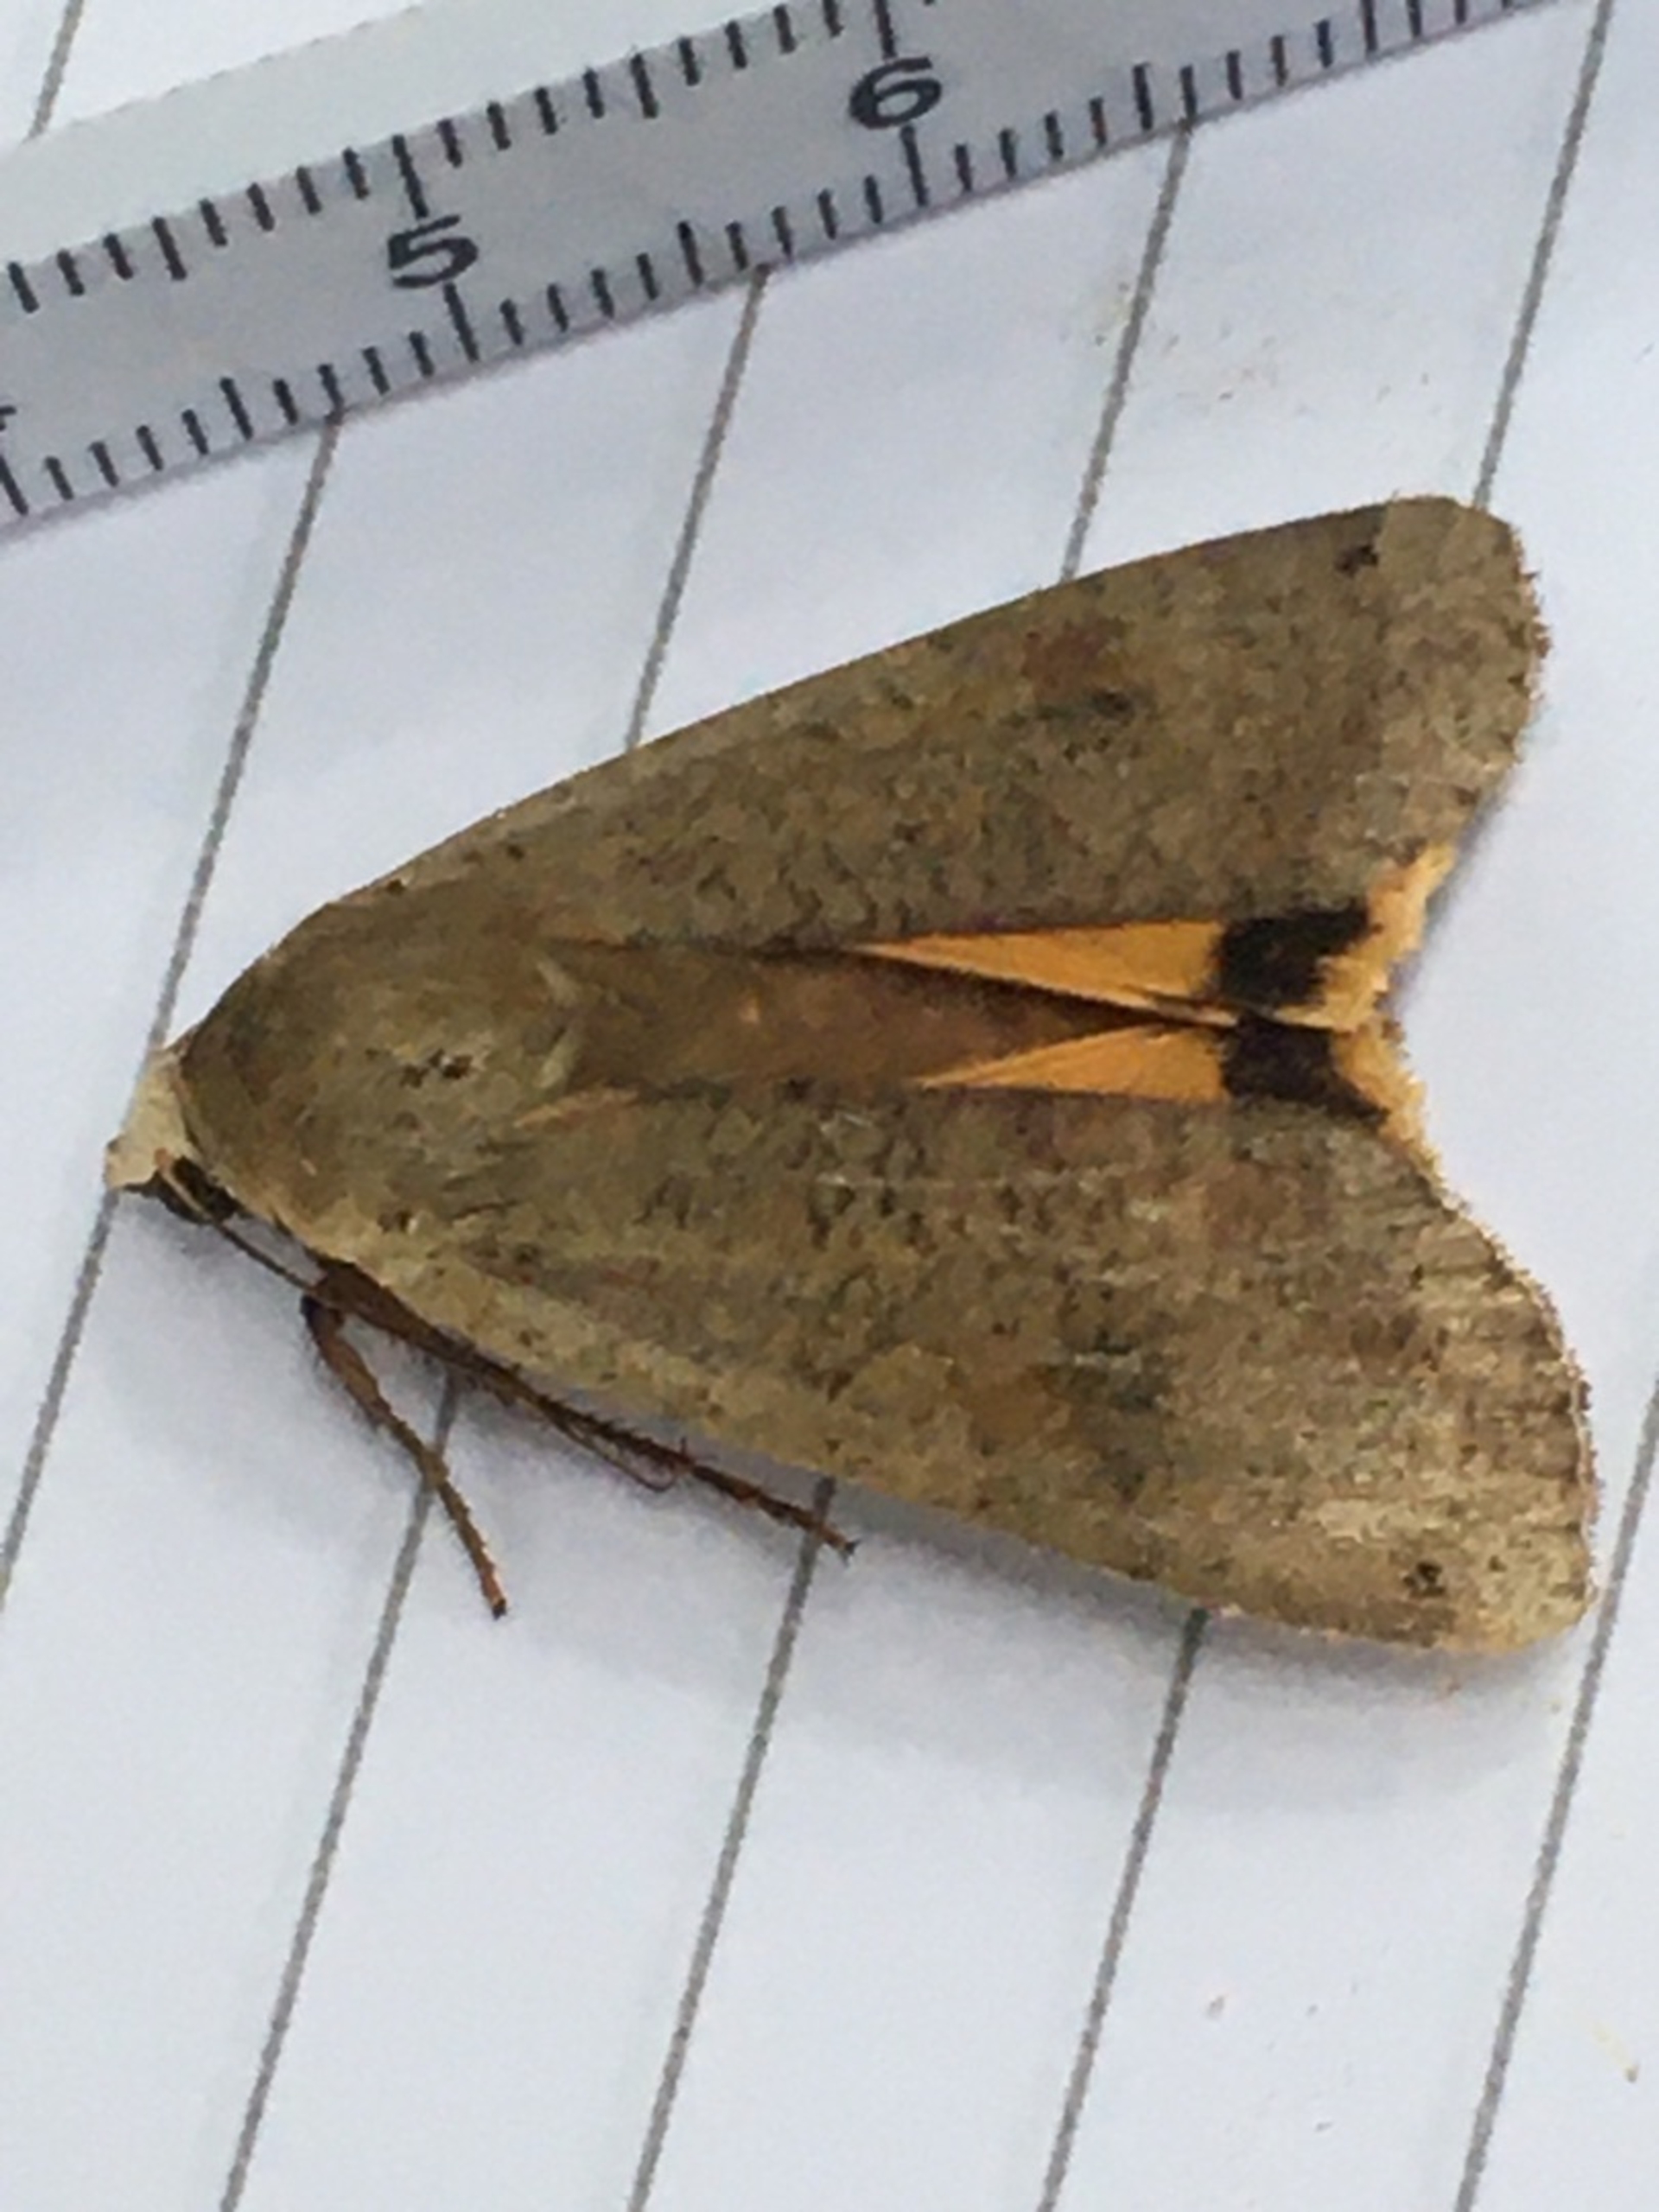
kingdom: Animalia
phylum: Arthropoda
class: Insecta
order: Lepidoptera
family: Noctuidae
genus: Noctua
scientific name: Noctua pronuba
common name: Stor smutugle
